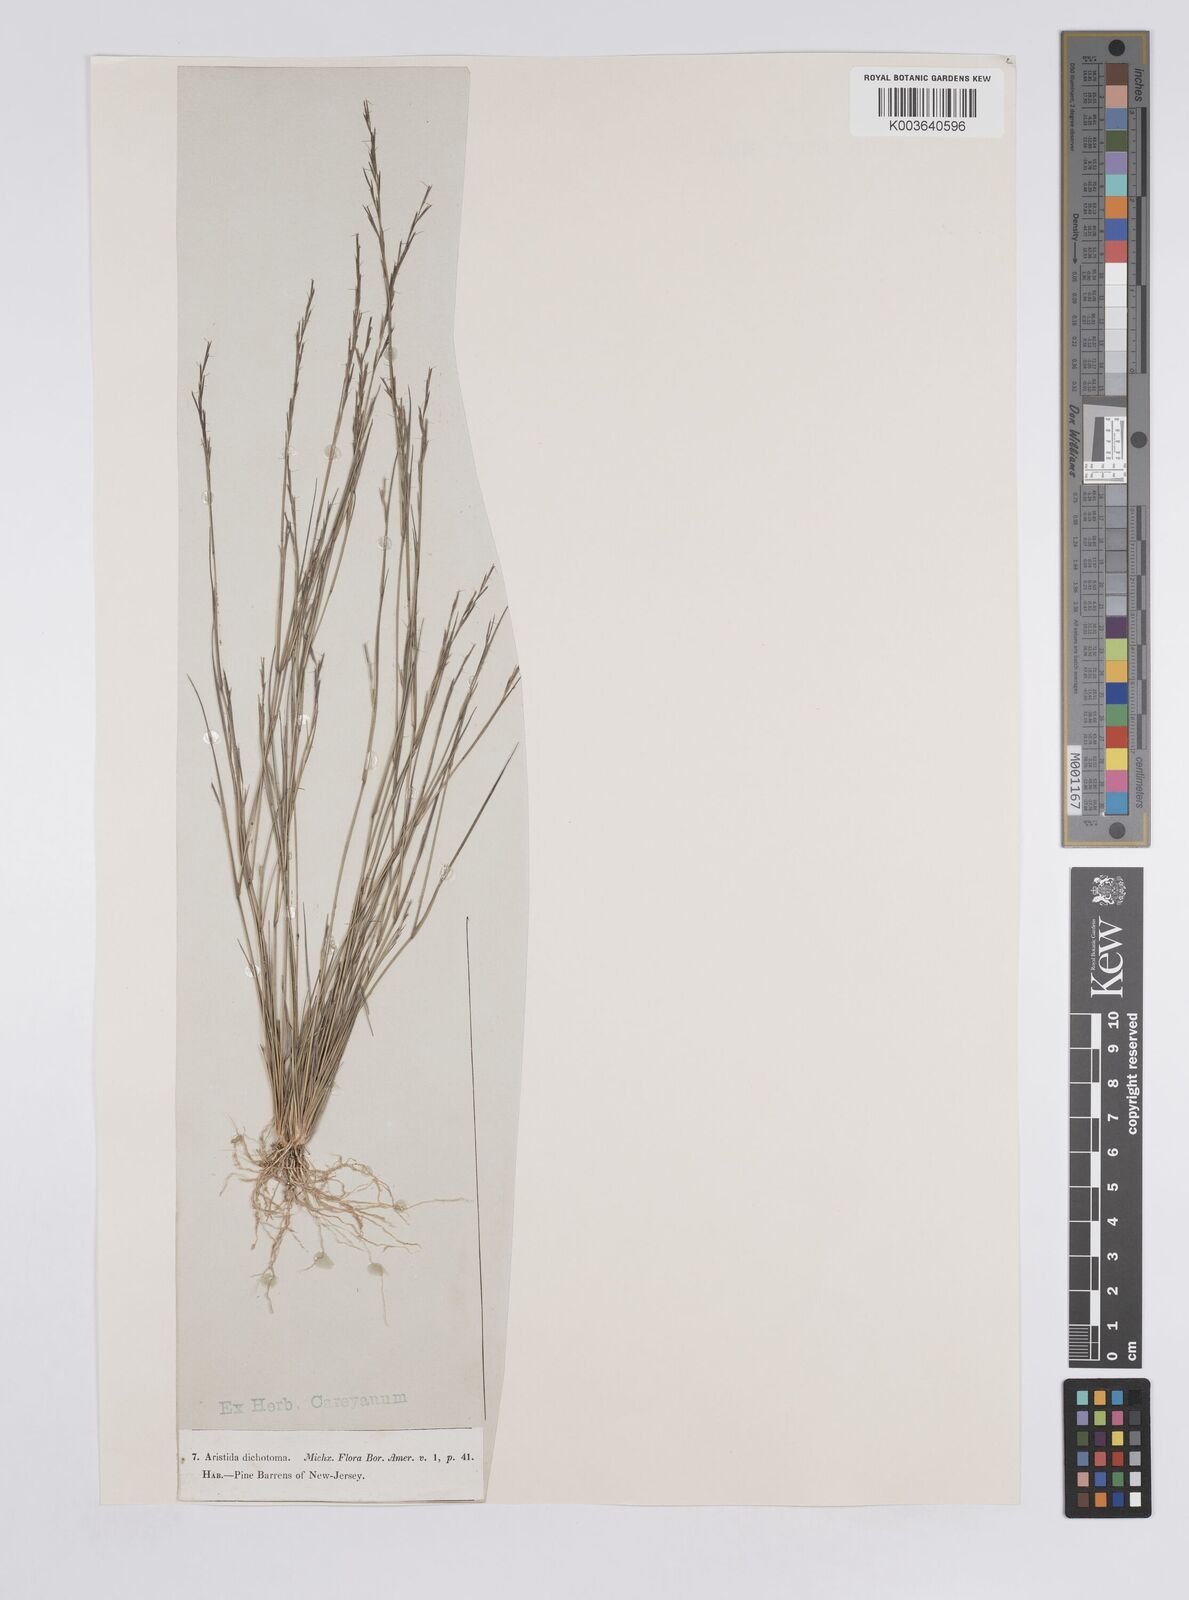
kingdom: Plantae
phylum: Tracheophyta
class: Liliopsida
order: Poales
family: Poaceae
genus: Aristida
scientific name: Aristida dichotoma
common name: Churchmouse three-awn
